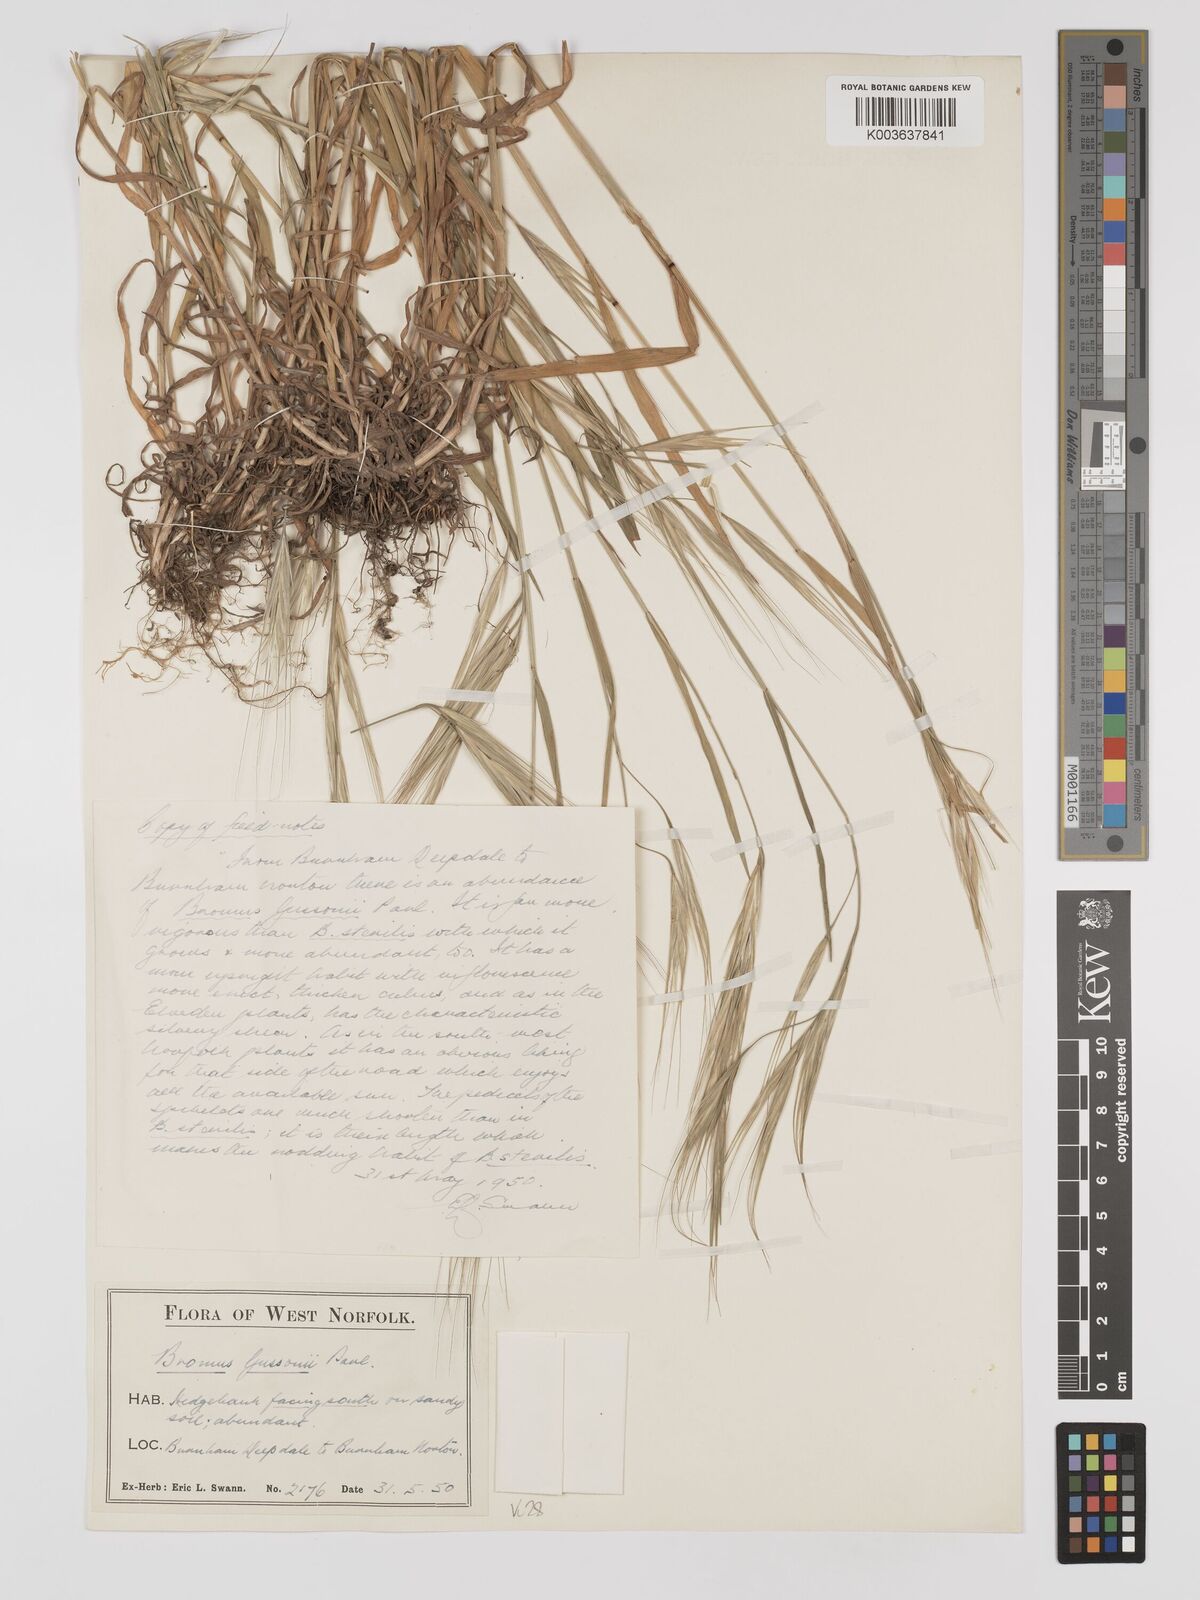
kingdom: Plantae
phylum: Tracheophyta
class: Liliopsida
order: Poales
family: Poaceae
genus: Bromus
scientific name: Bromus
